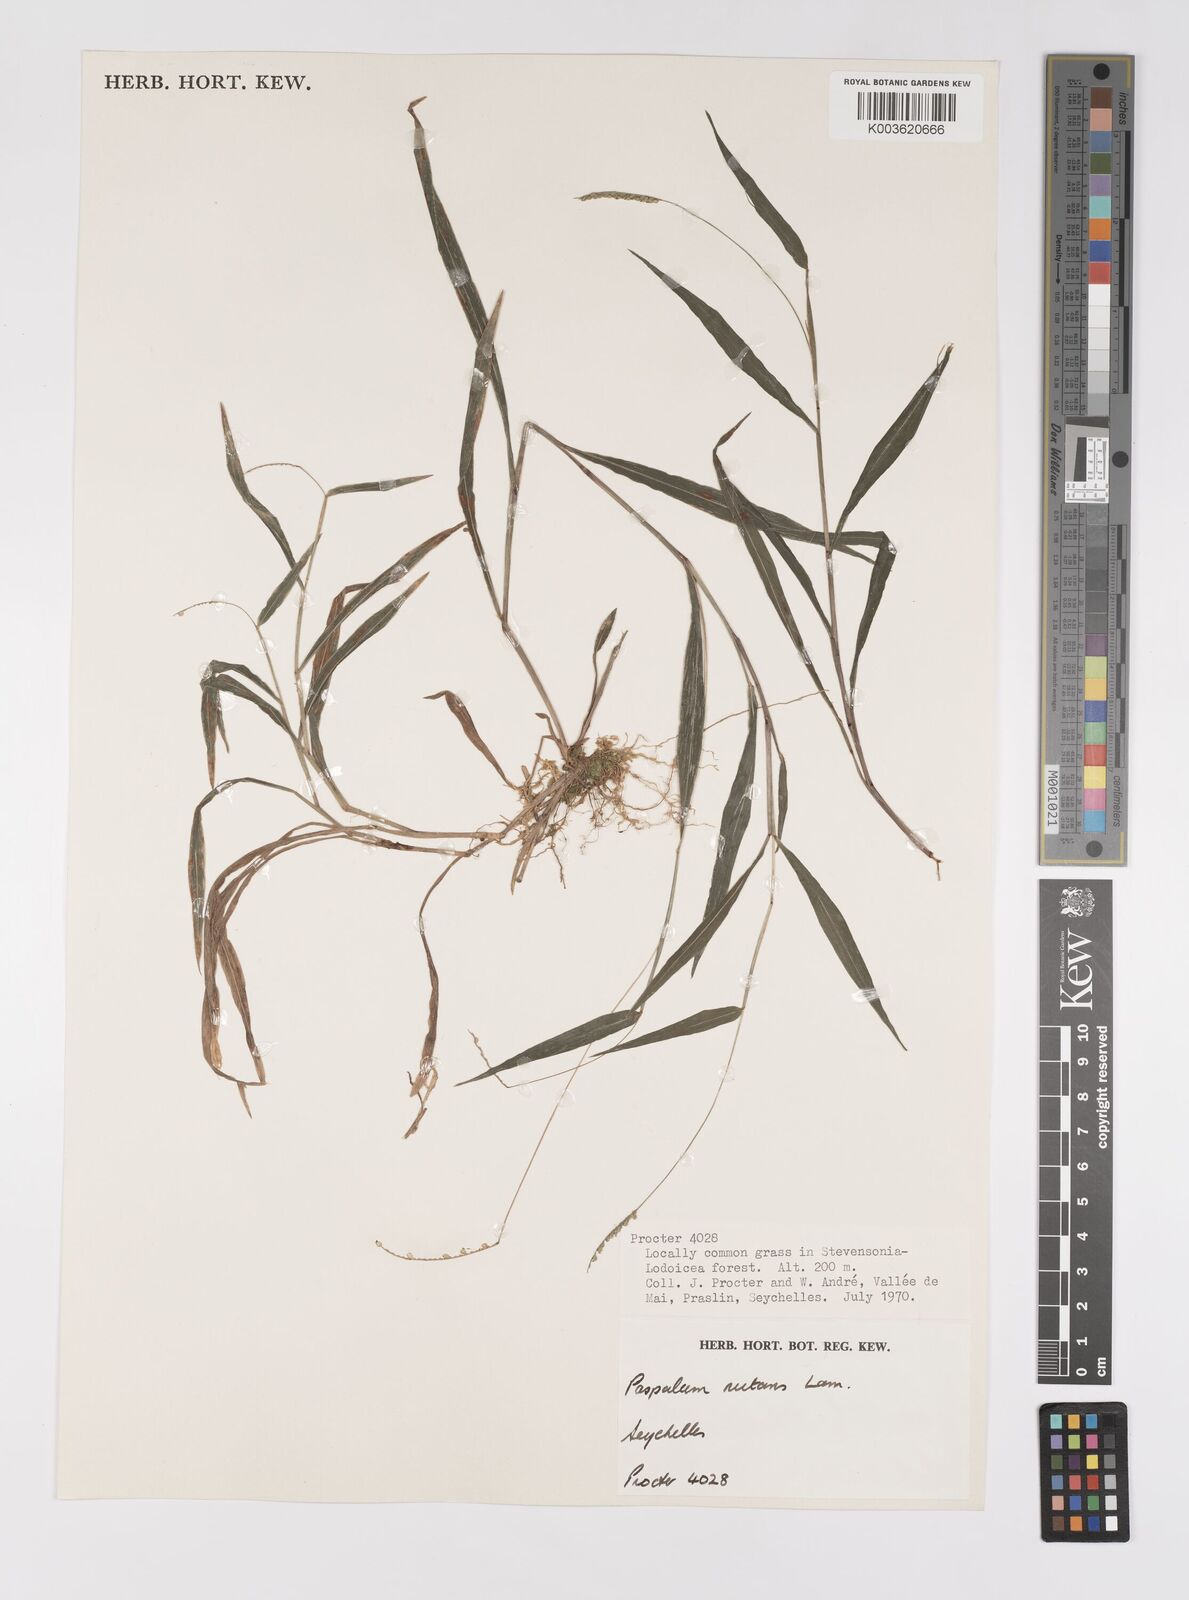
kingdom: Plantae
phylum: Tracheophyta
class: Liliopsida
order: Poales
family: Poaceae
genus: Paspalum
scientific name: Paspalum nutans
